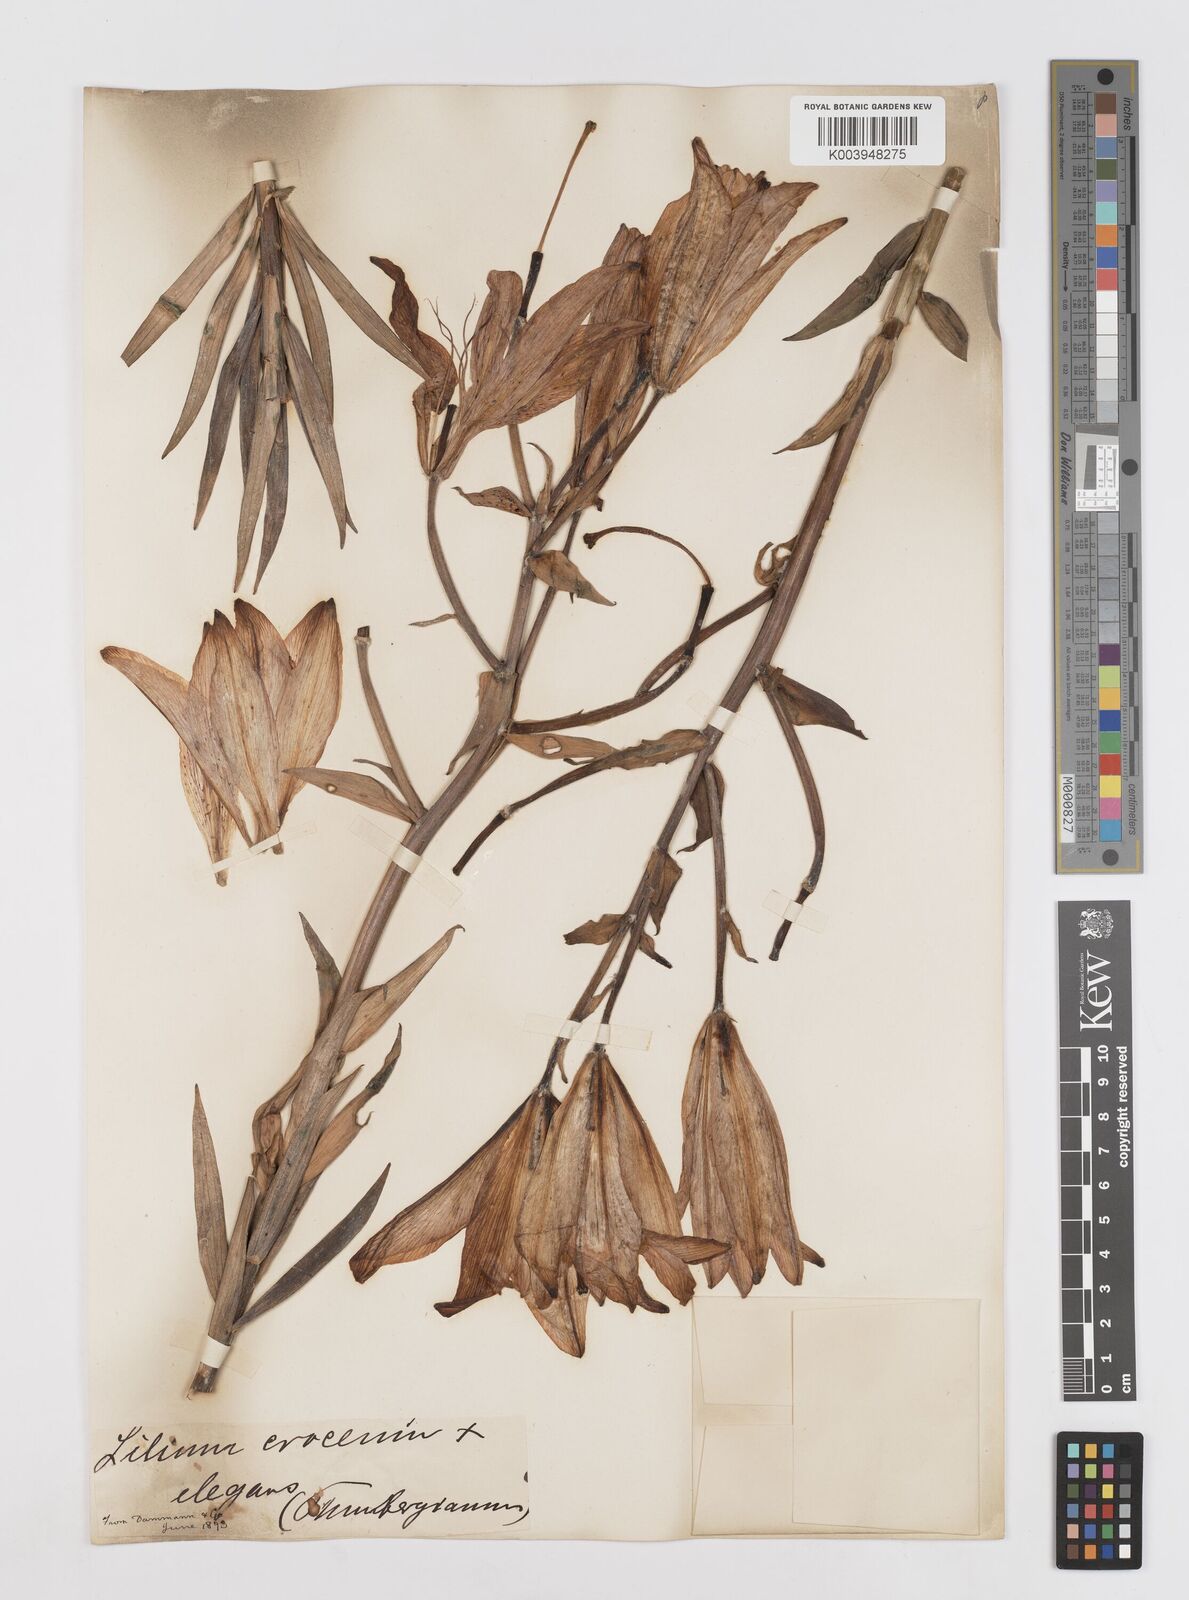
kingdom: Plantae
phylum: Tracheophyta
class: Liliopsida
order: Liliales
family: Liliaceae
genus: Lilium
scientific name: Lilium bulbiferum
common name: Orange lily
